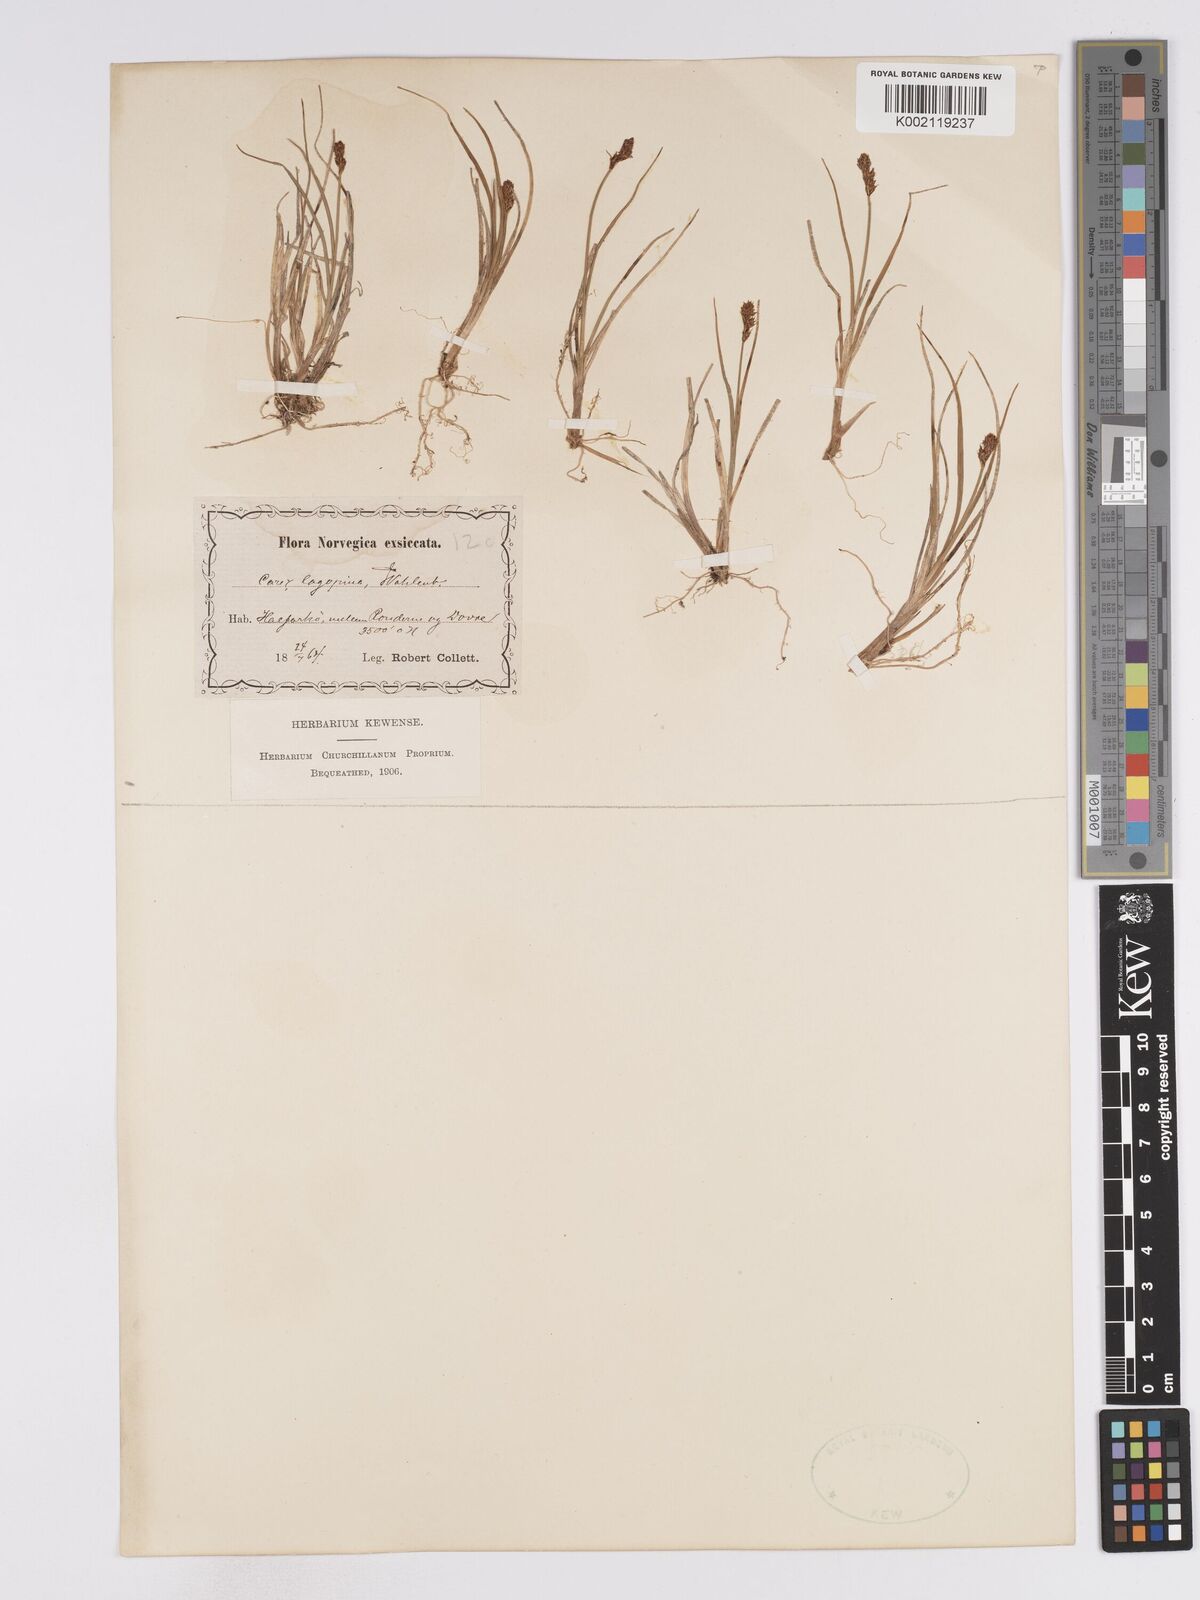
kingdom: Plantae
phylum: Tracheophyta
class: Liliopsida
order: Poales
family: Cyperaceae
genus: Carex
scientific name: Carex lachenalii
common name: Hare's-foot sedge
